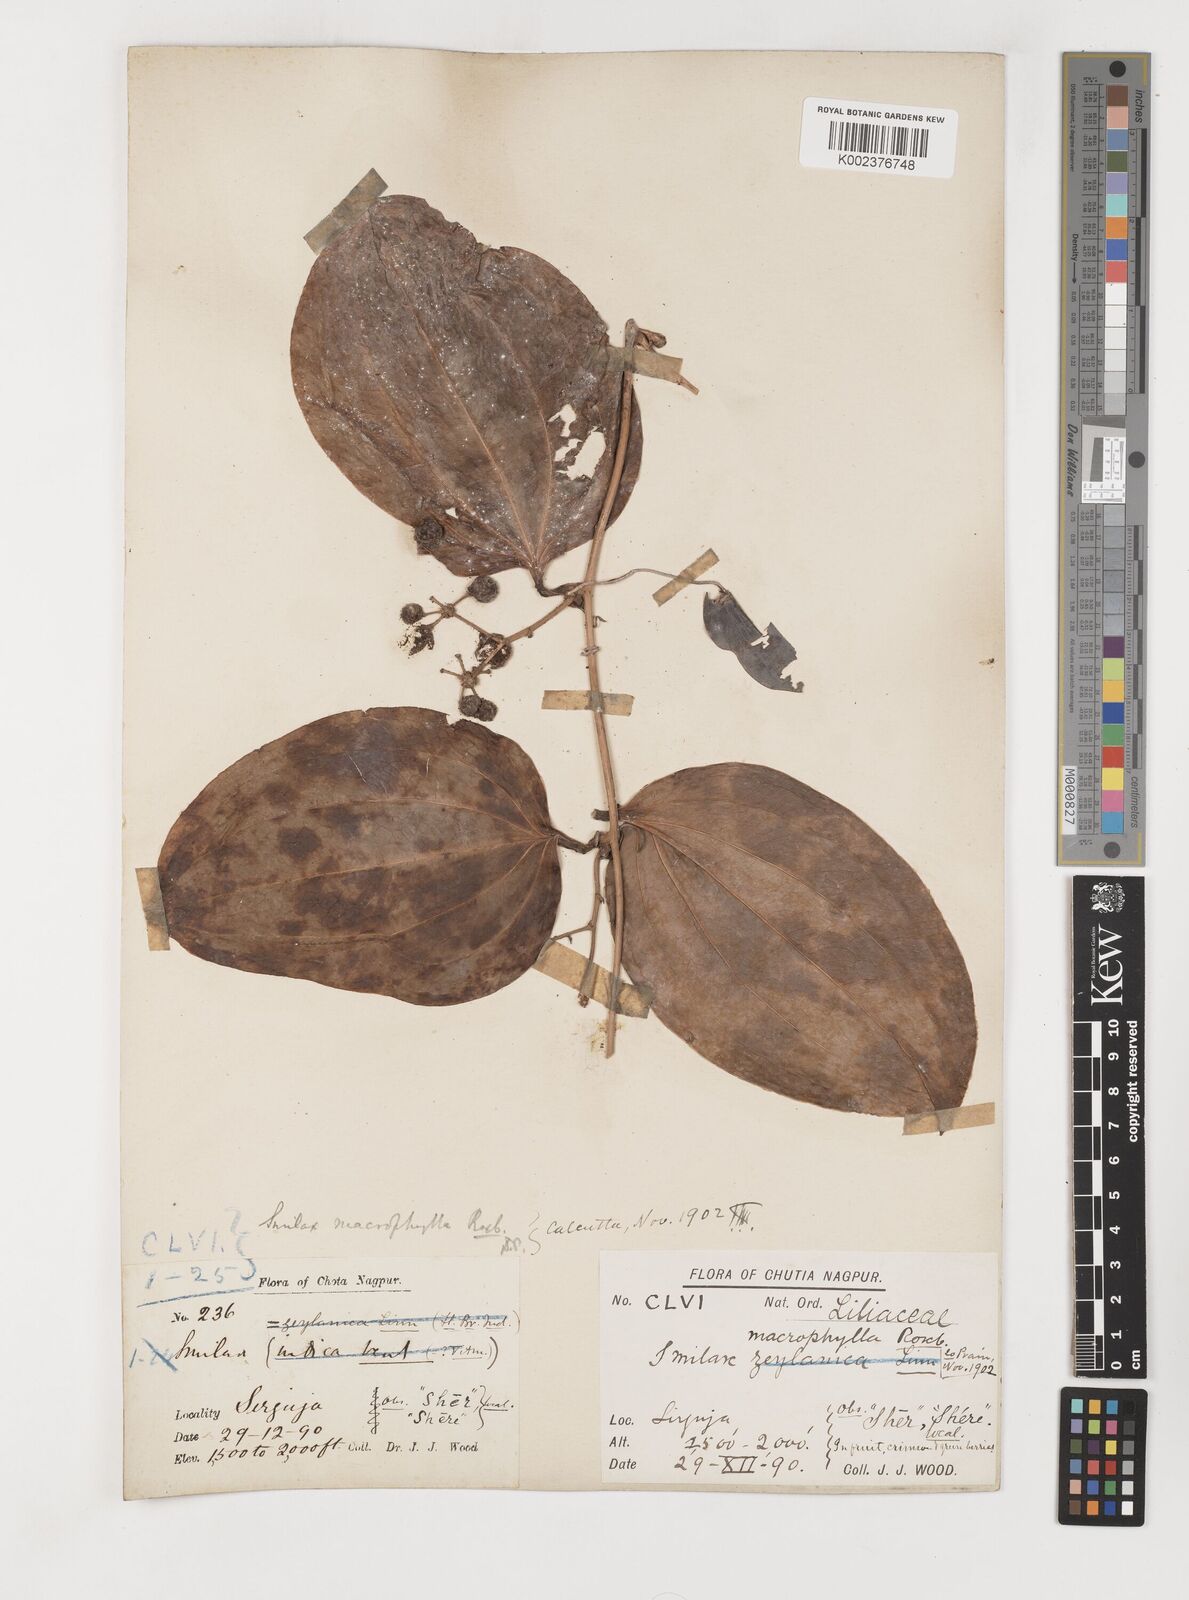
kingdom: Plantae
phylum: Tracheophyta
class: Liliopsida
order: Liliales
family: Smilacaceae
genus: Smilax
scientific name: Smilax ovalifolia
